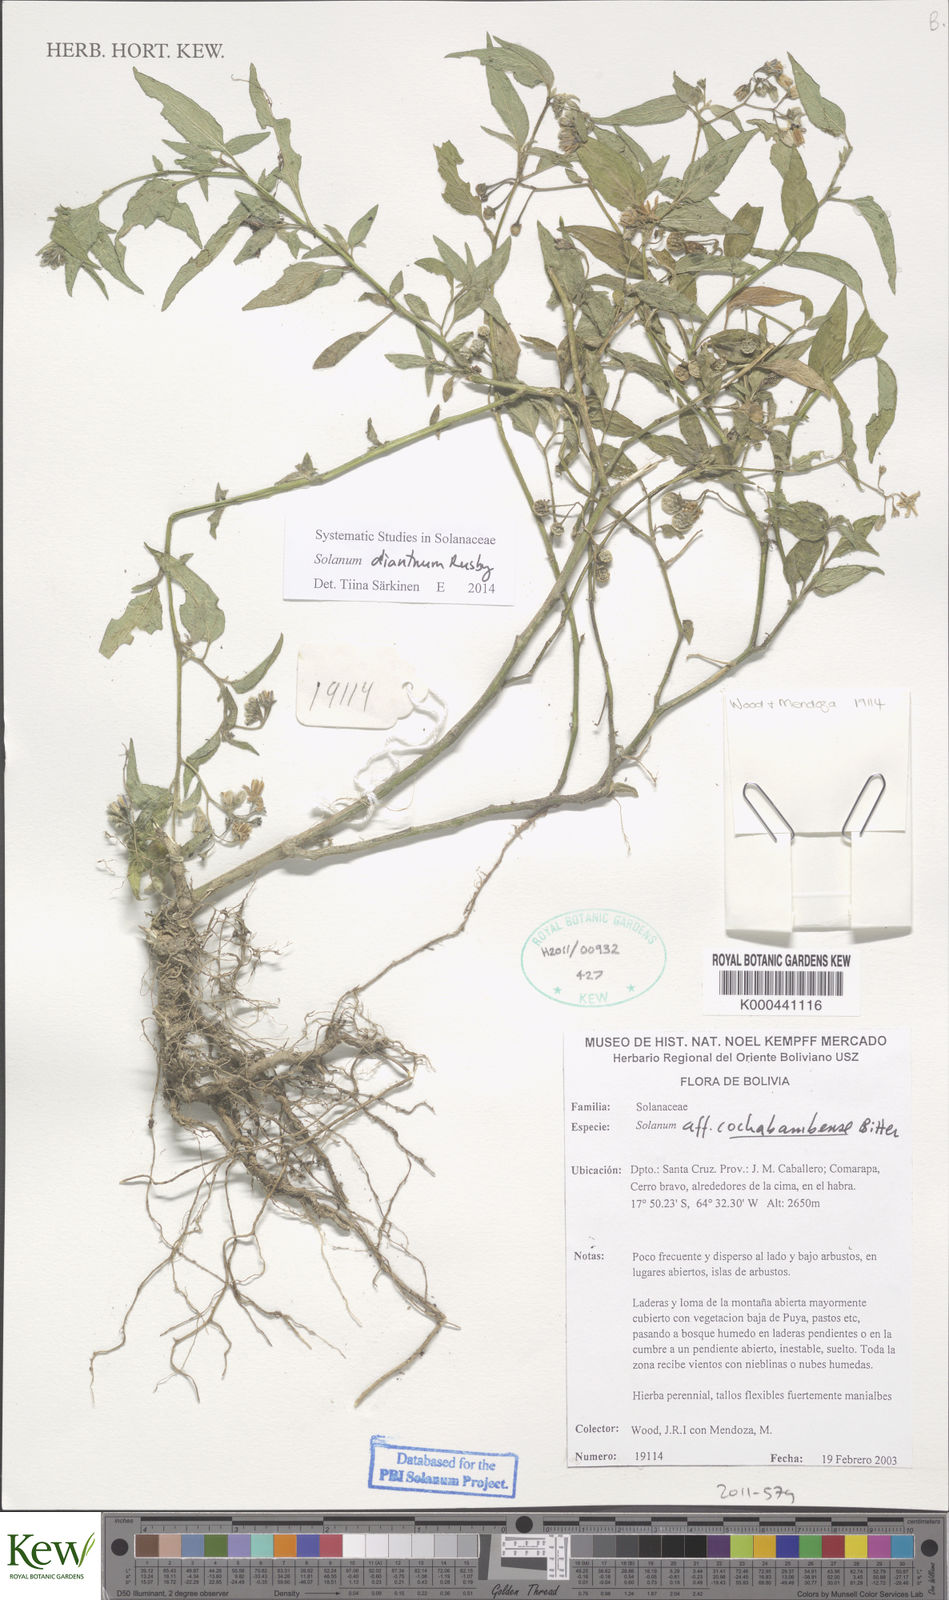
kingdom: Plantae
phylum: Tracheophyta
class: Magnoliopsida
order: Solanales
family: Solanaceae
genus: Solanum
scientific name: Solanum dianthum
